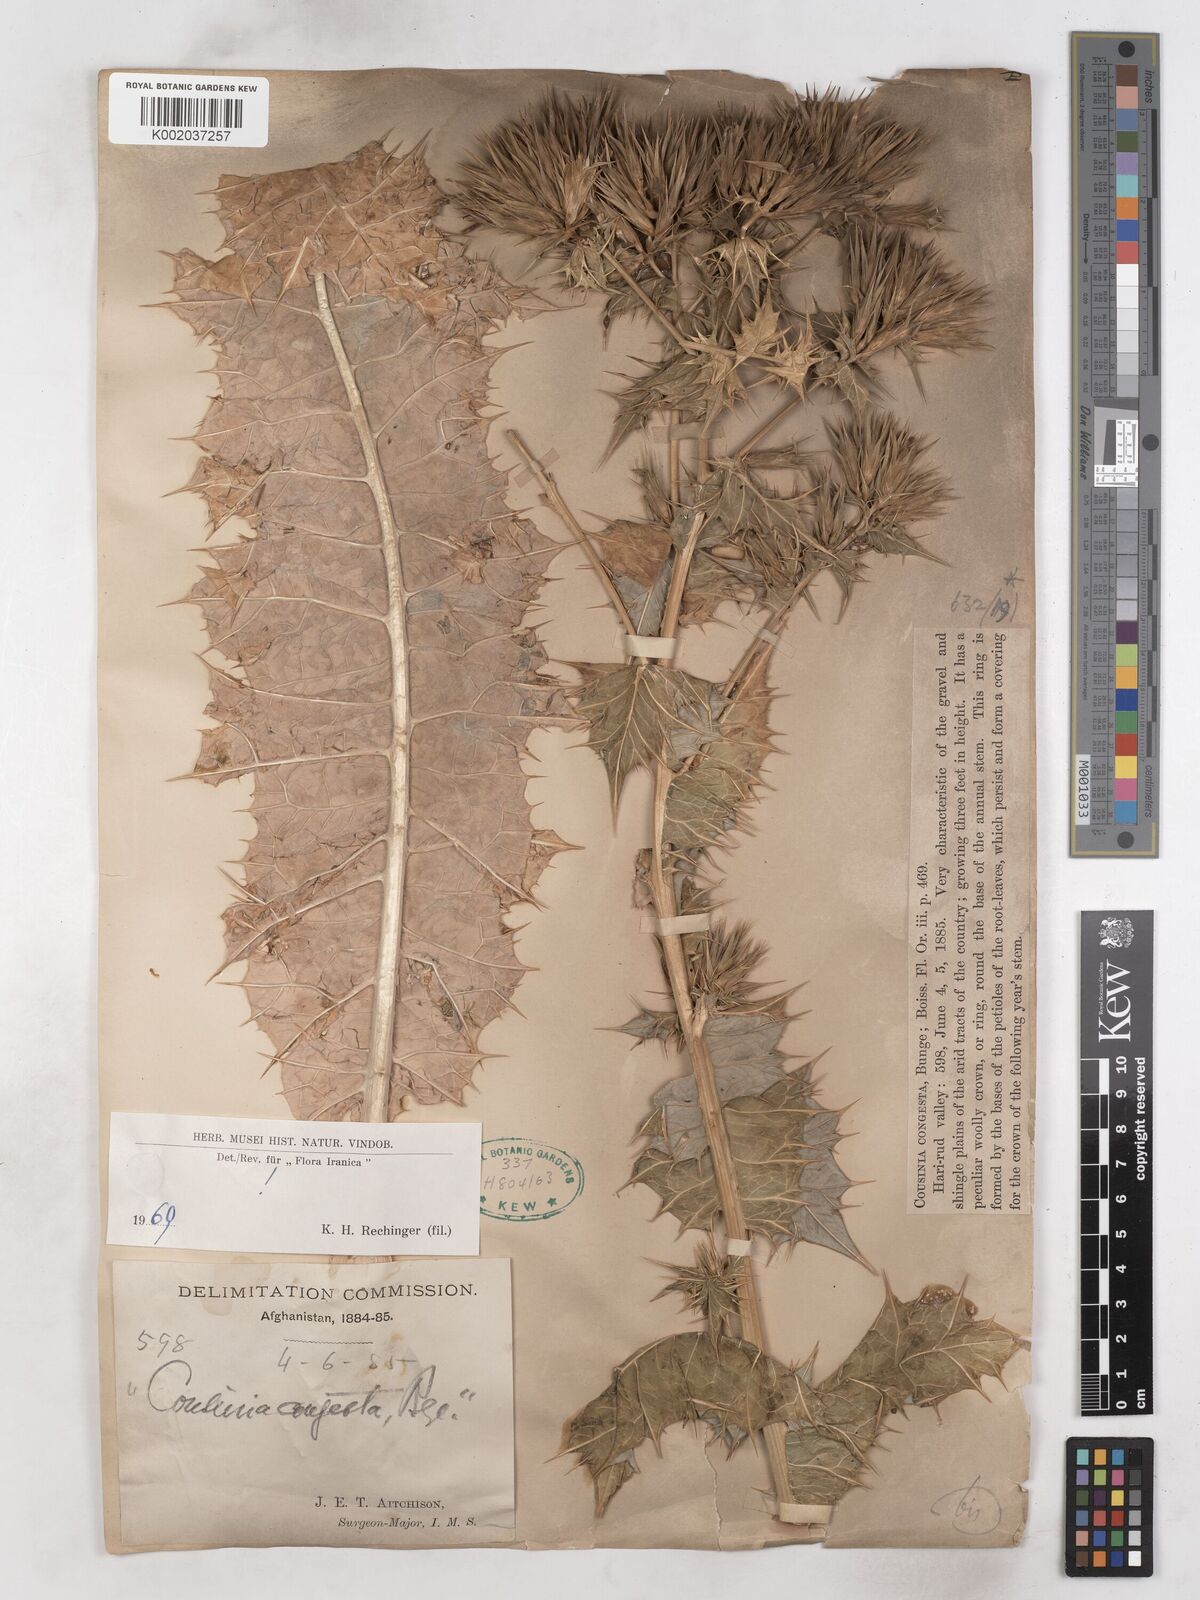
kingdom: Plantae
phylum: Tracheophyta
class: Magnoliopsida
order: Asterales
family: Asteraceae
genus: Cousinia
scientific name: Cousinia congesta
